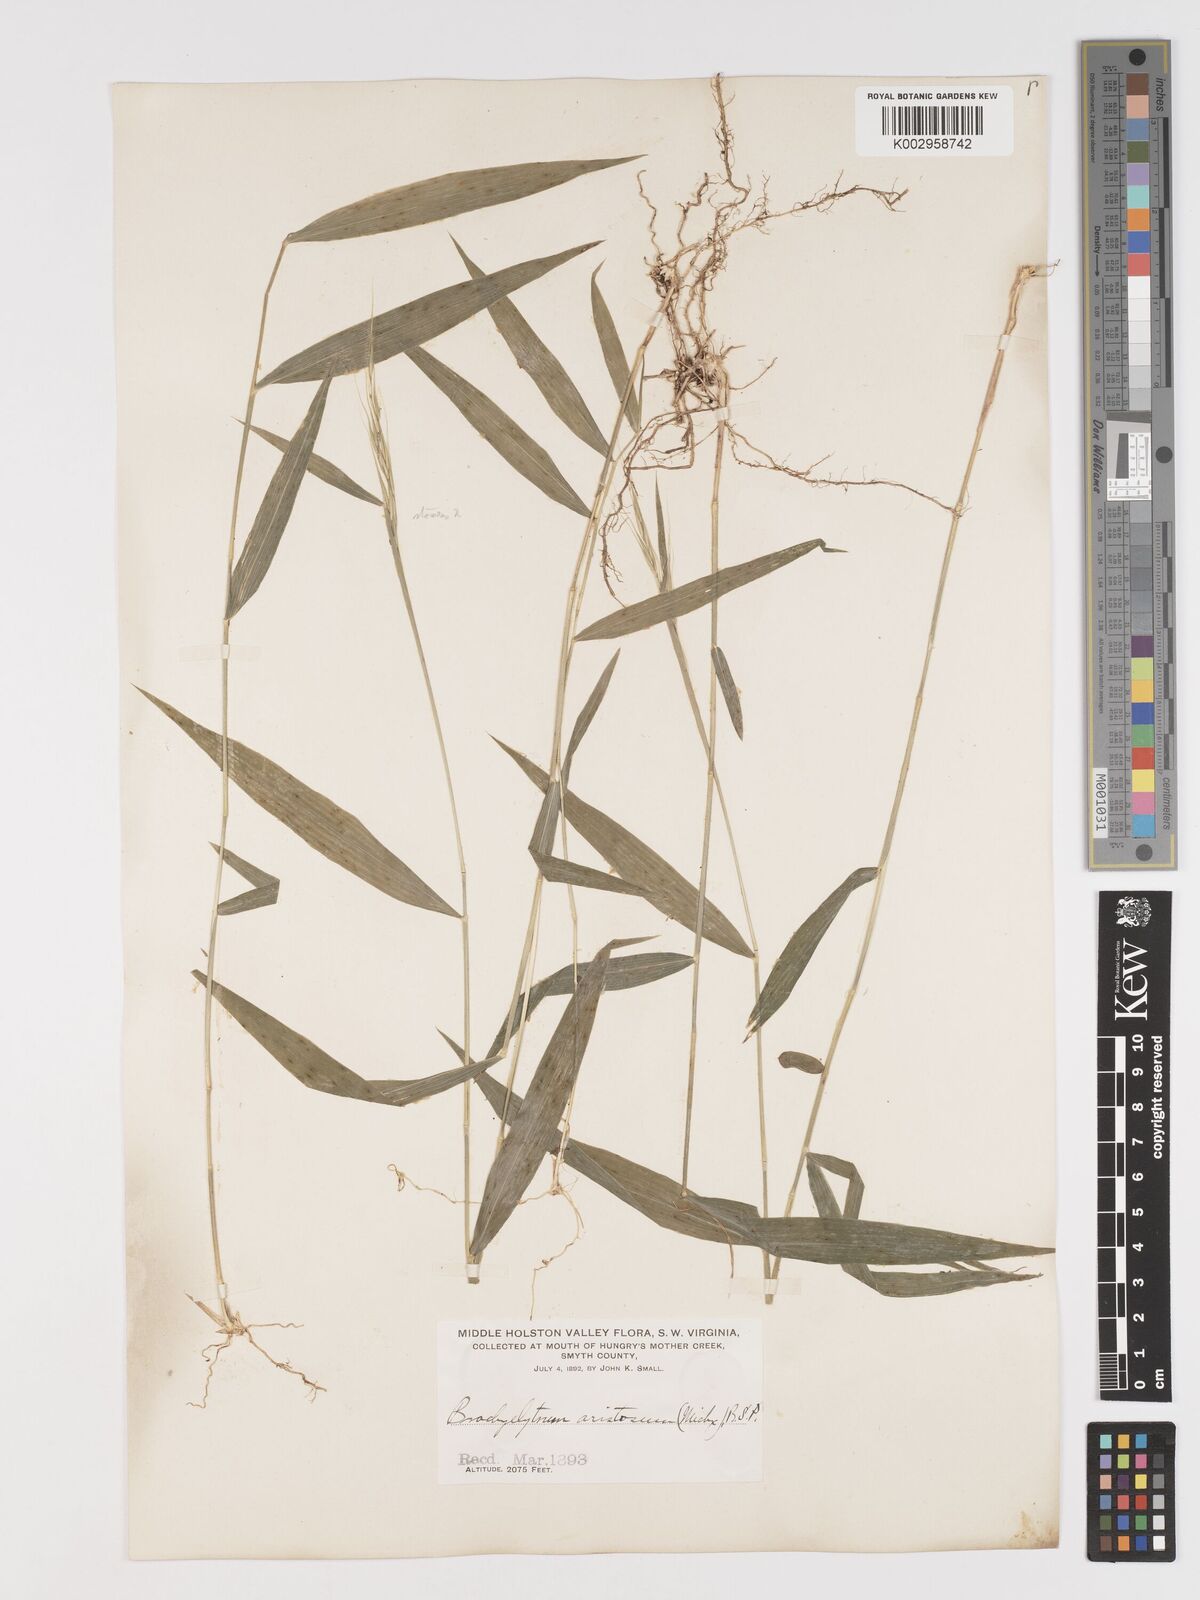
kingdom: Plantae
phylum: Tracheophyta
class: Liliopsida
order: Poales
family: Poaceae
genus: Brachyelytrum
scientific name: Brachyelytrum erectum
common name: Bearded shorthusk
